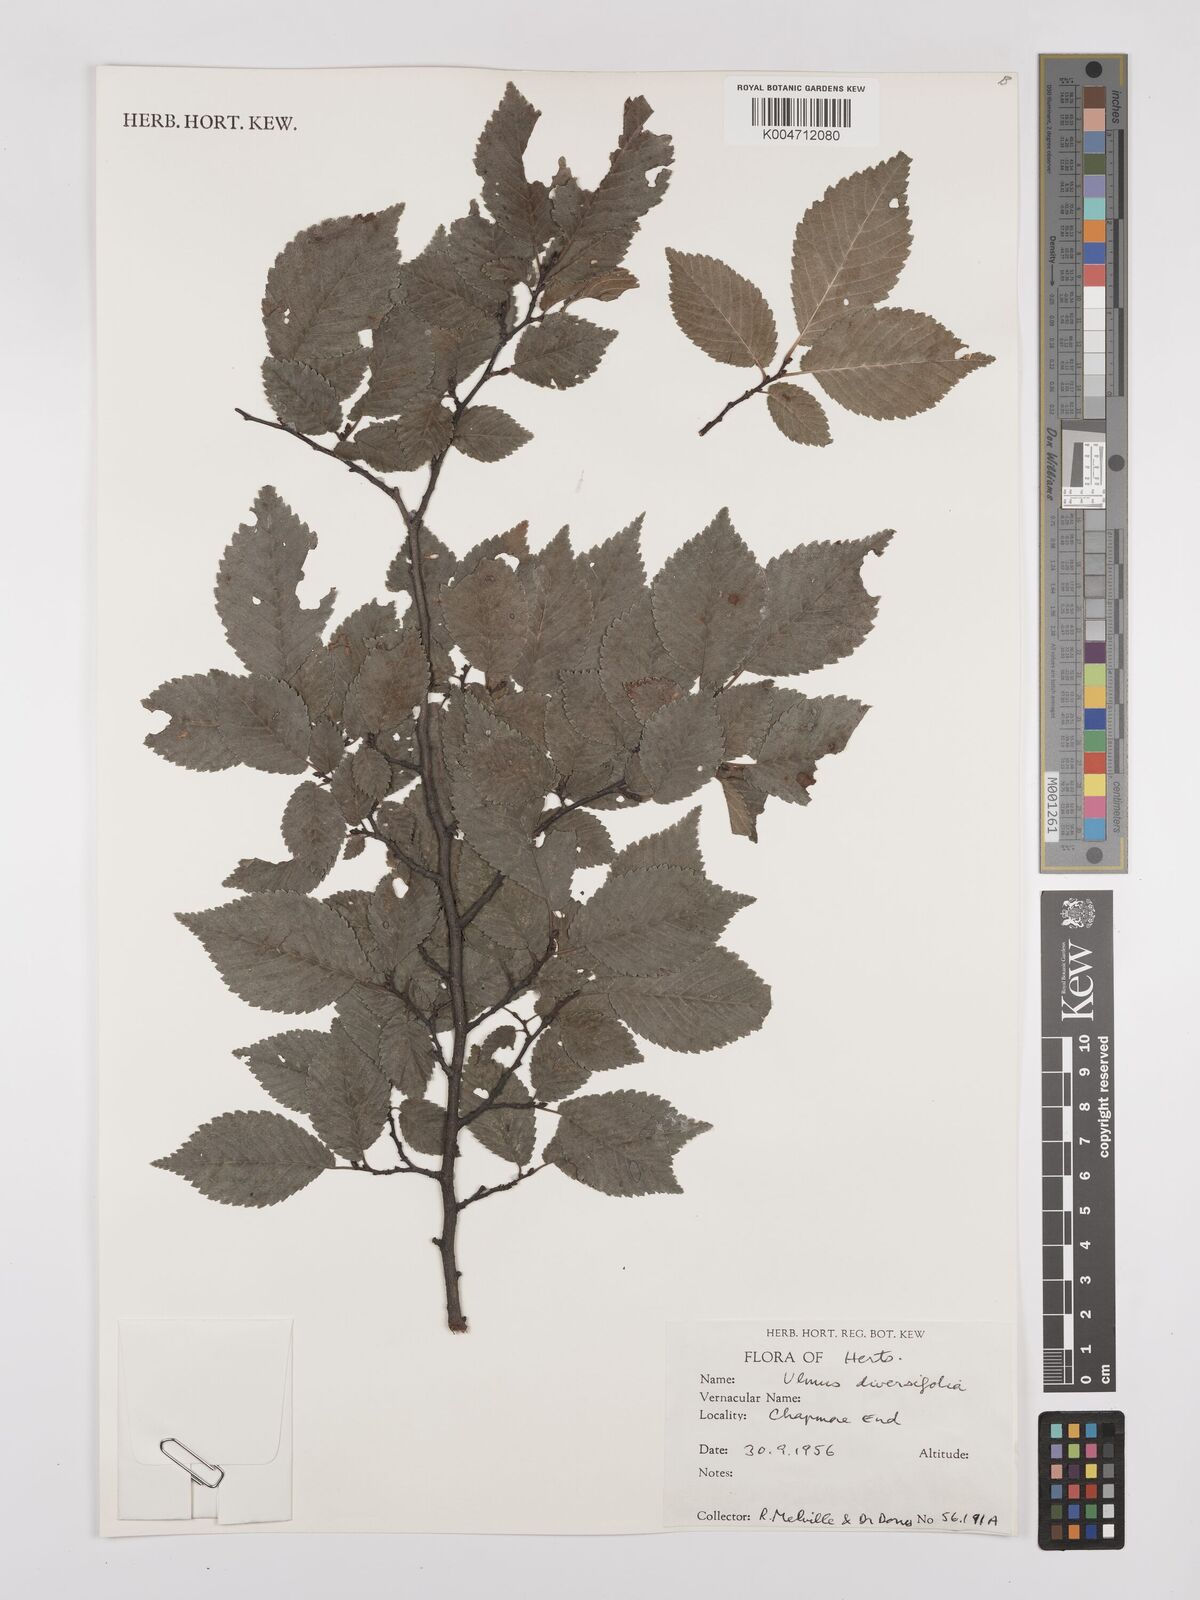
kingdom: Plantae
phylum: Tracheophyta
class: Magnoliopsida
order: Rosales
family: Ulmaceae
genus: Ulmus
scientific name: Ulmus minor
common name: Small-leaved elm
